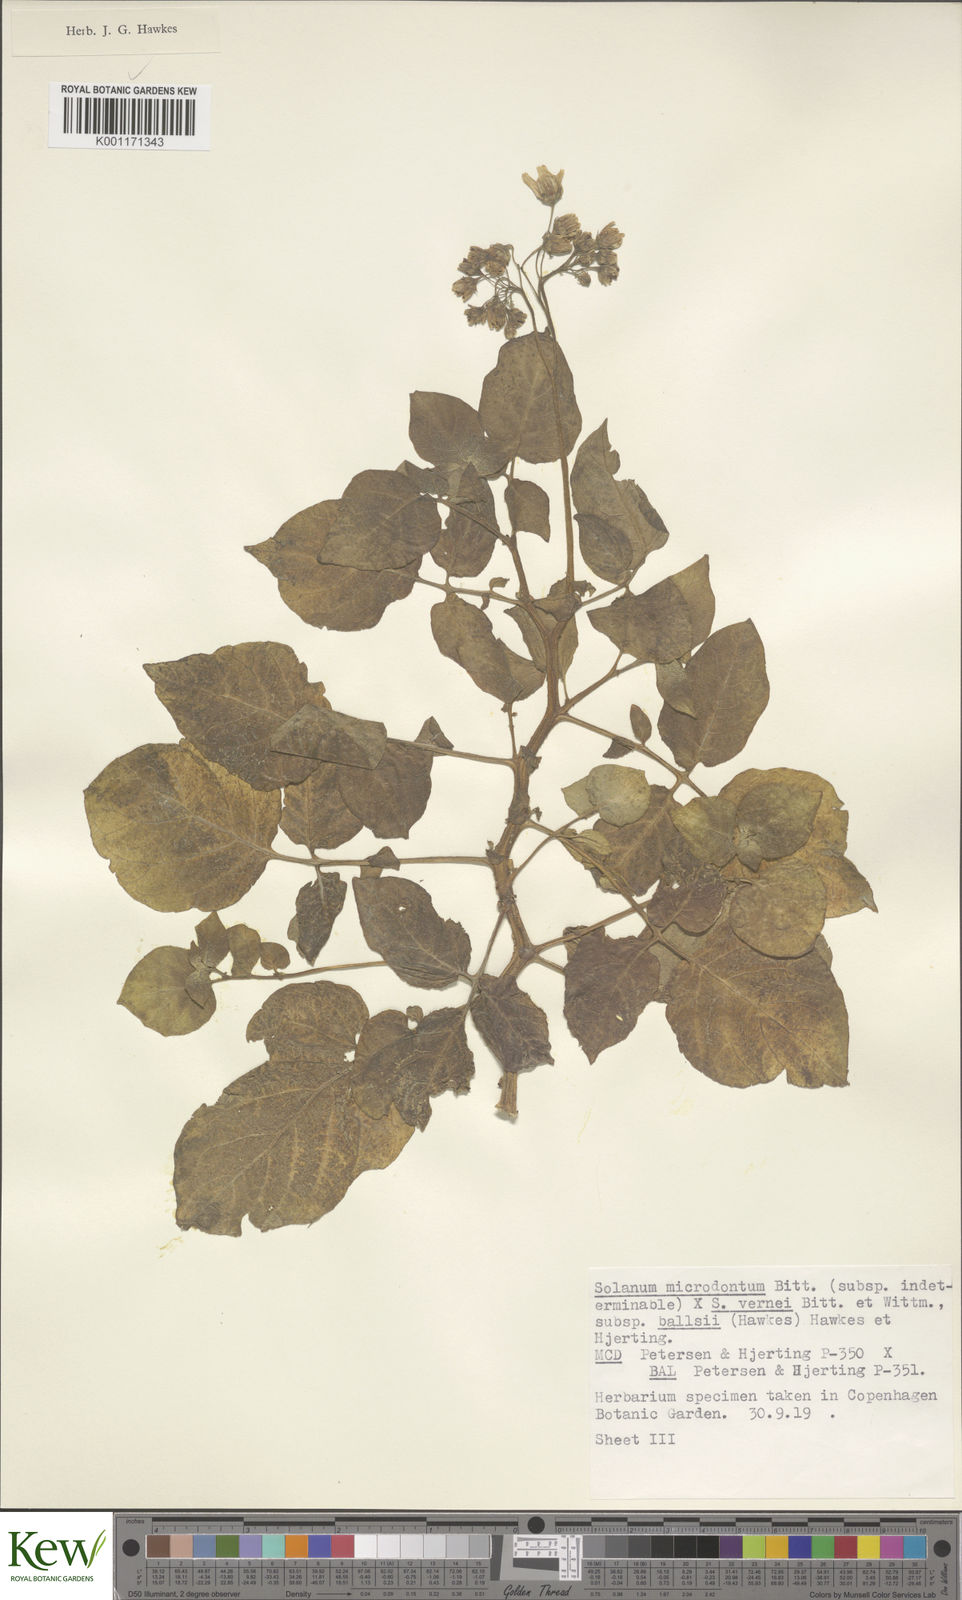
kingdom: Plantae
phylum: Tracheophyta
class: Magnoliopsida
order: Solanales
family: Solanaceae
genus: Solanum
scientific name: Solanum vernei
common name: Purple potato
